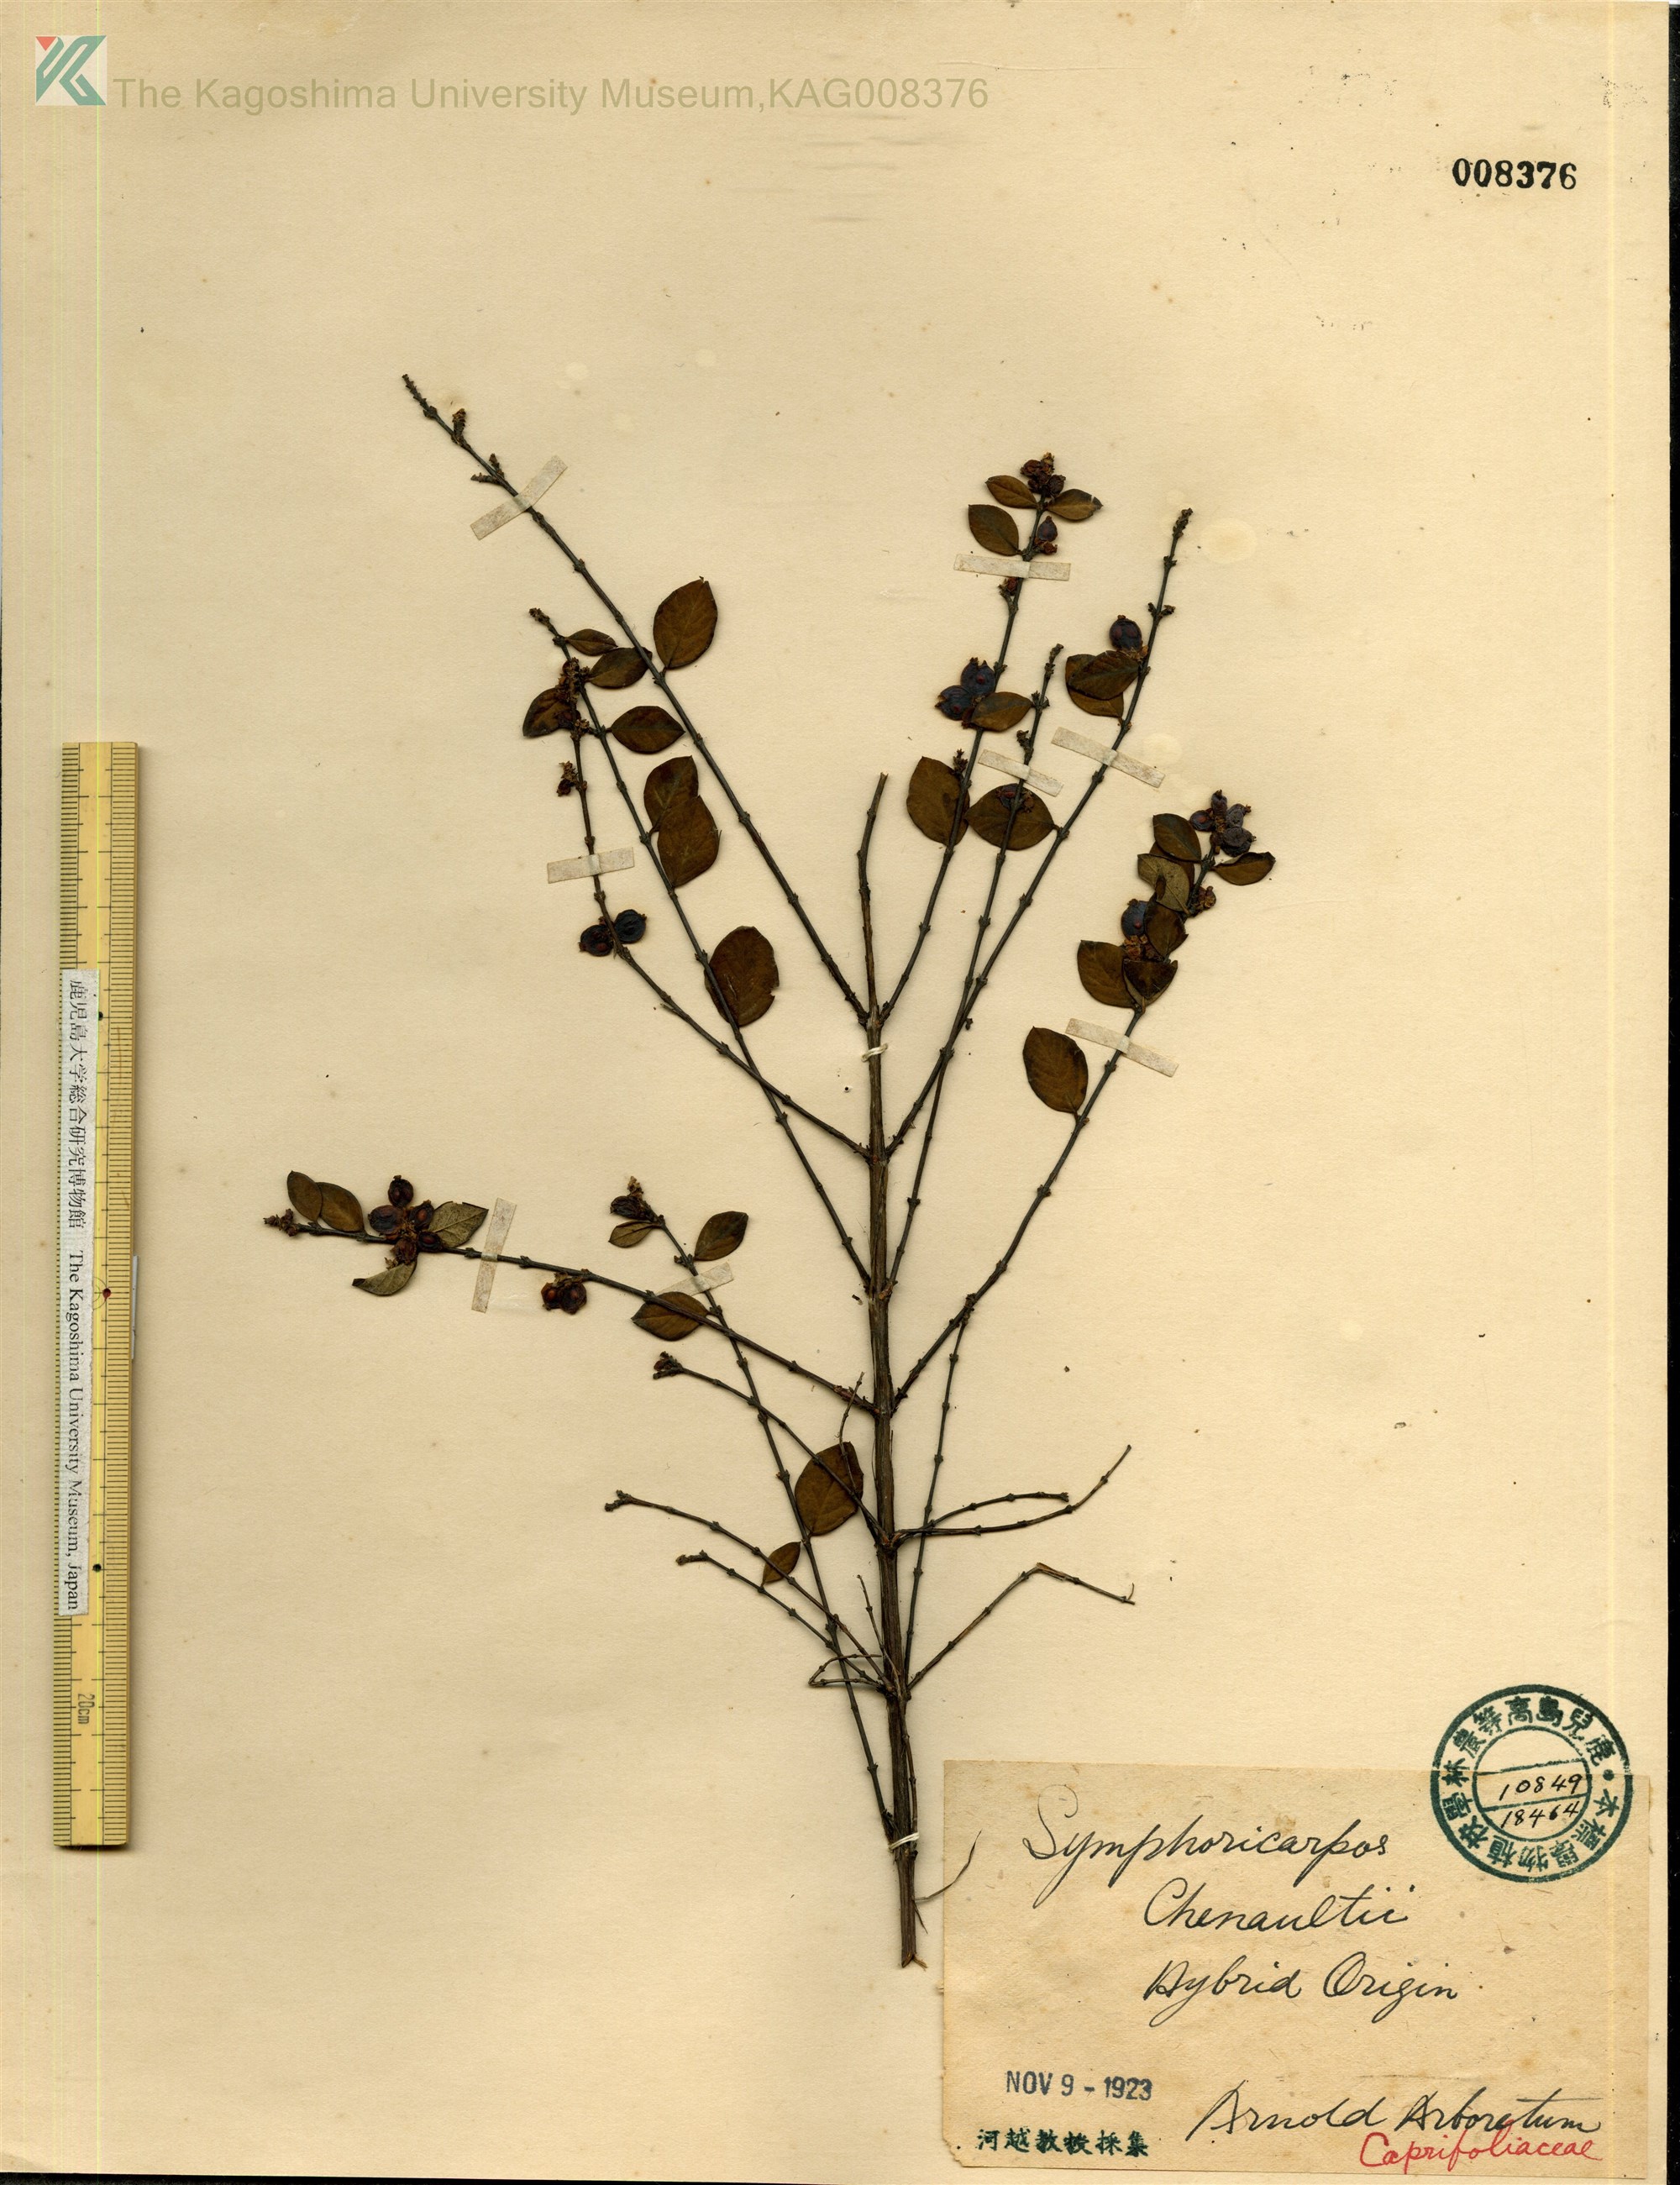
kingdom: Plantae
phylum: Tracheophyta
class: Magnoliopsida
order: Dipsacales
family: Caprifoliaceae
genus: Symphoricarpos
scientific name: Symphoricarpos chenaultii
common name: Hybrid coralberry
